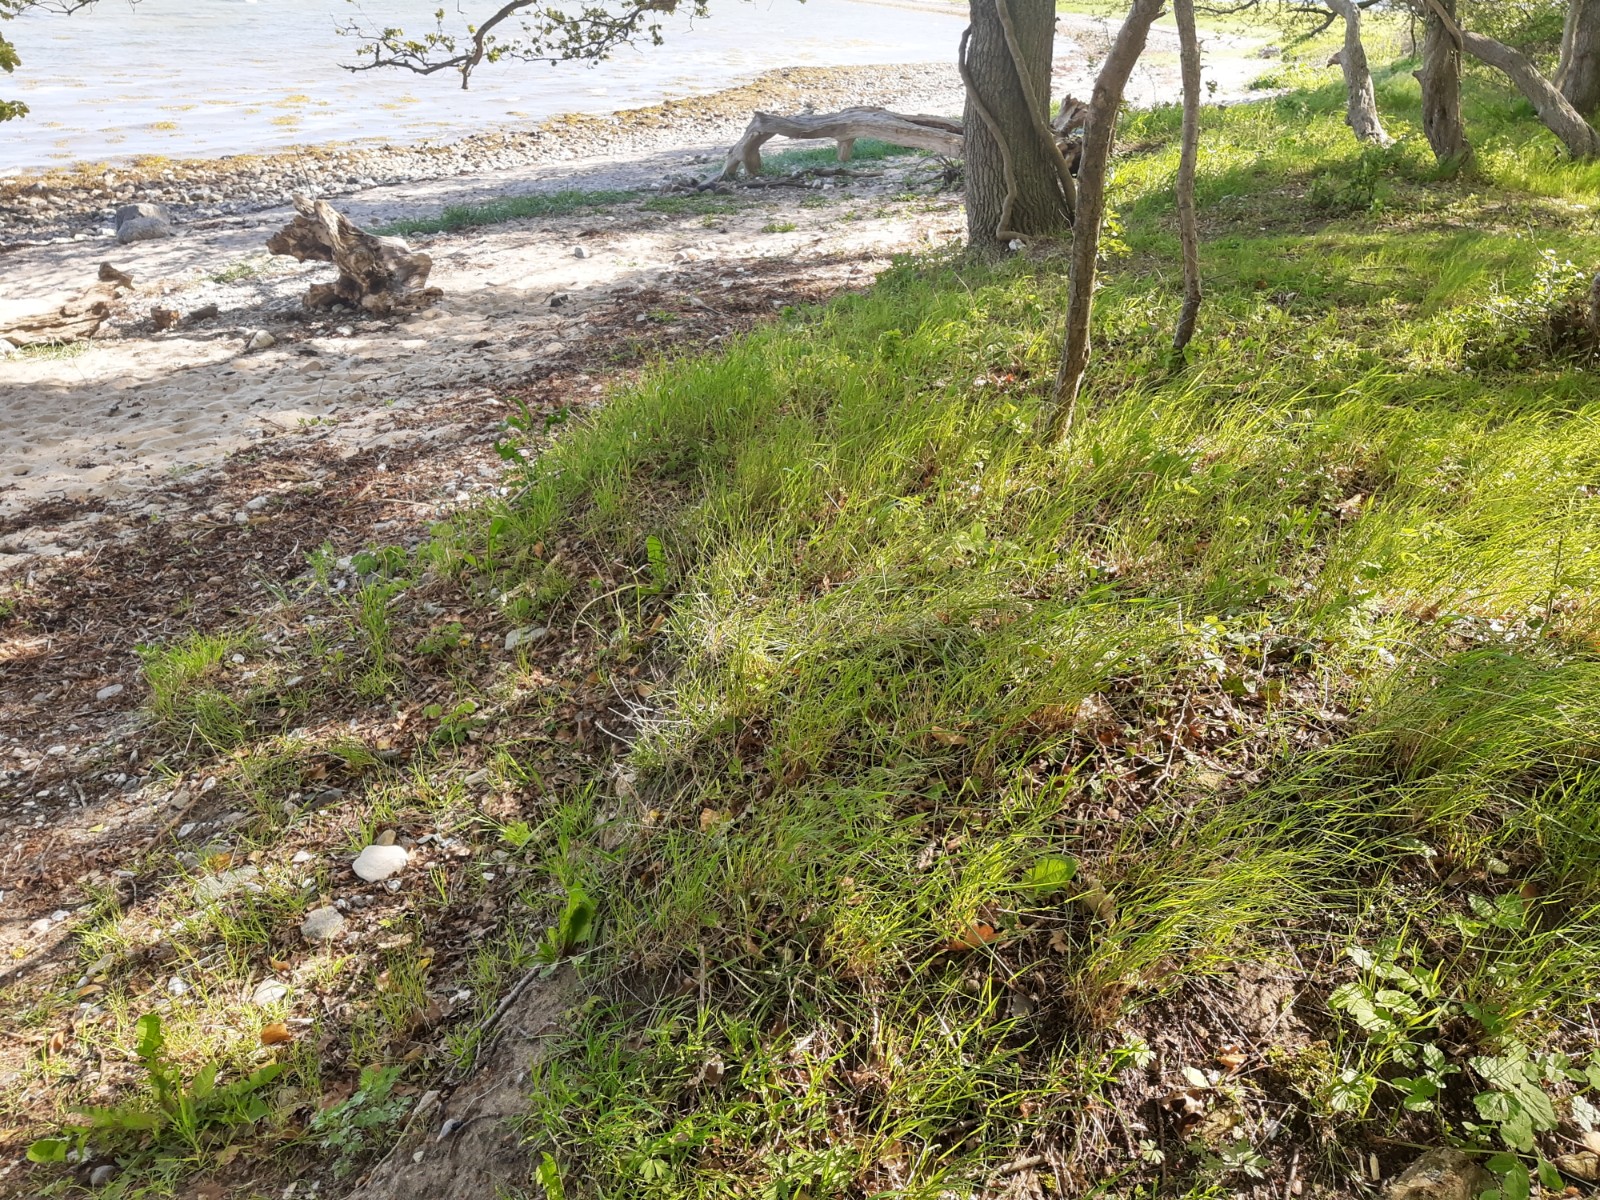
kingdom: Fungi
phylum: Basidiomycota
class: Agaricomycetes
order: Agaricales
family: Lyophyllaceae
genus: Calocybe
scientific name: Calocybe gambosa
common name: vårmusseron
